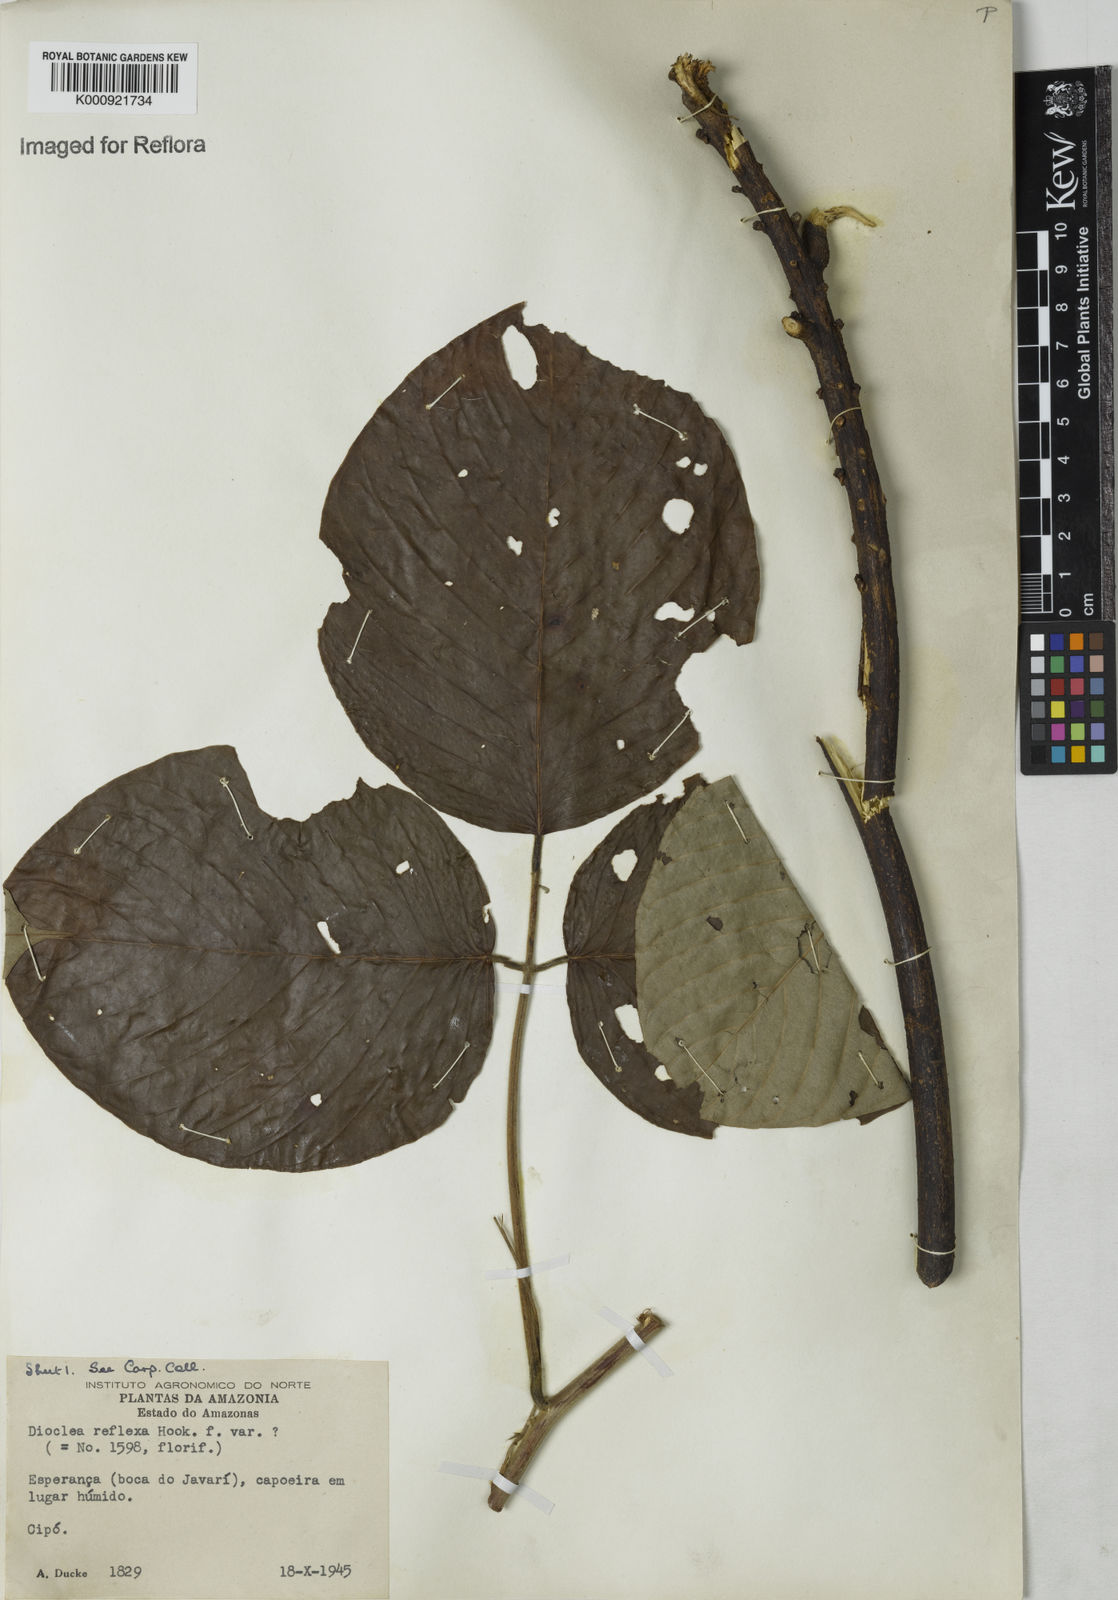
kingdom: Plantae
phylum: Tracheophyta
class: Magnoliopsida
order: Fabales
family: Fabaceae
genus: Macropsychanthus
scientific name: Macropsychanthus comosus
